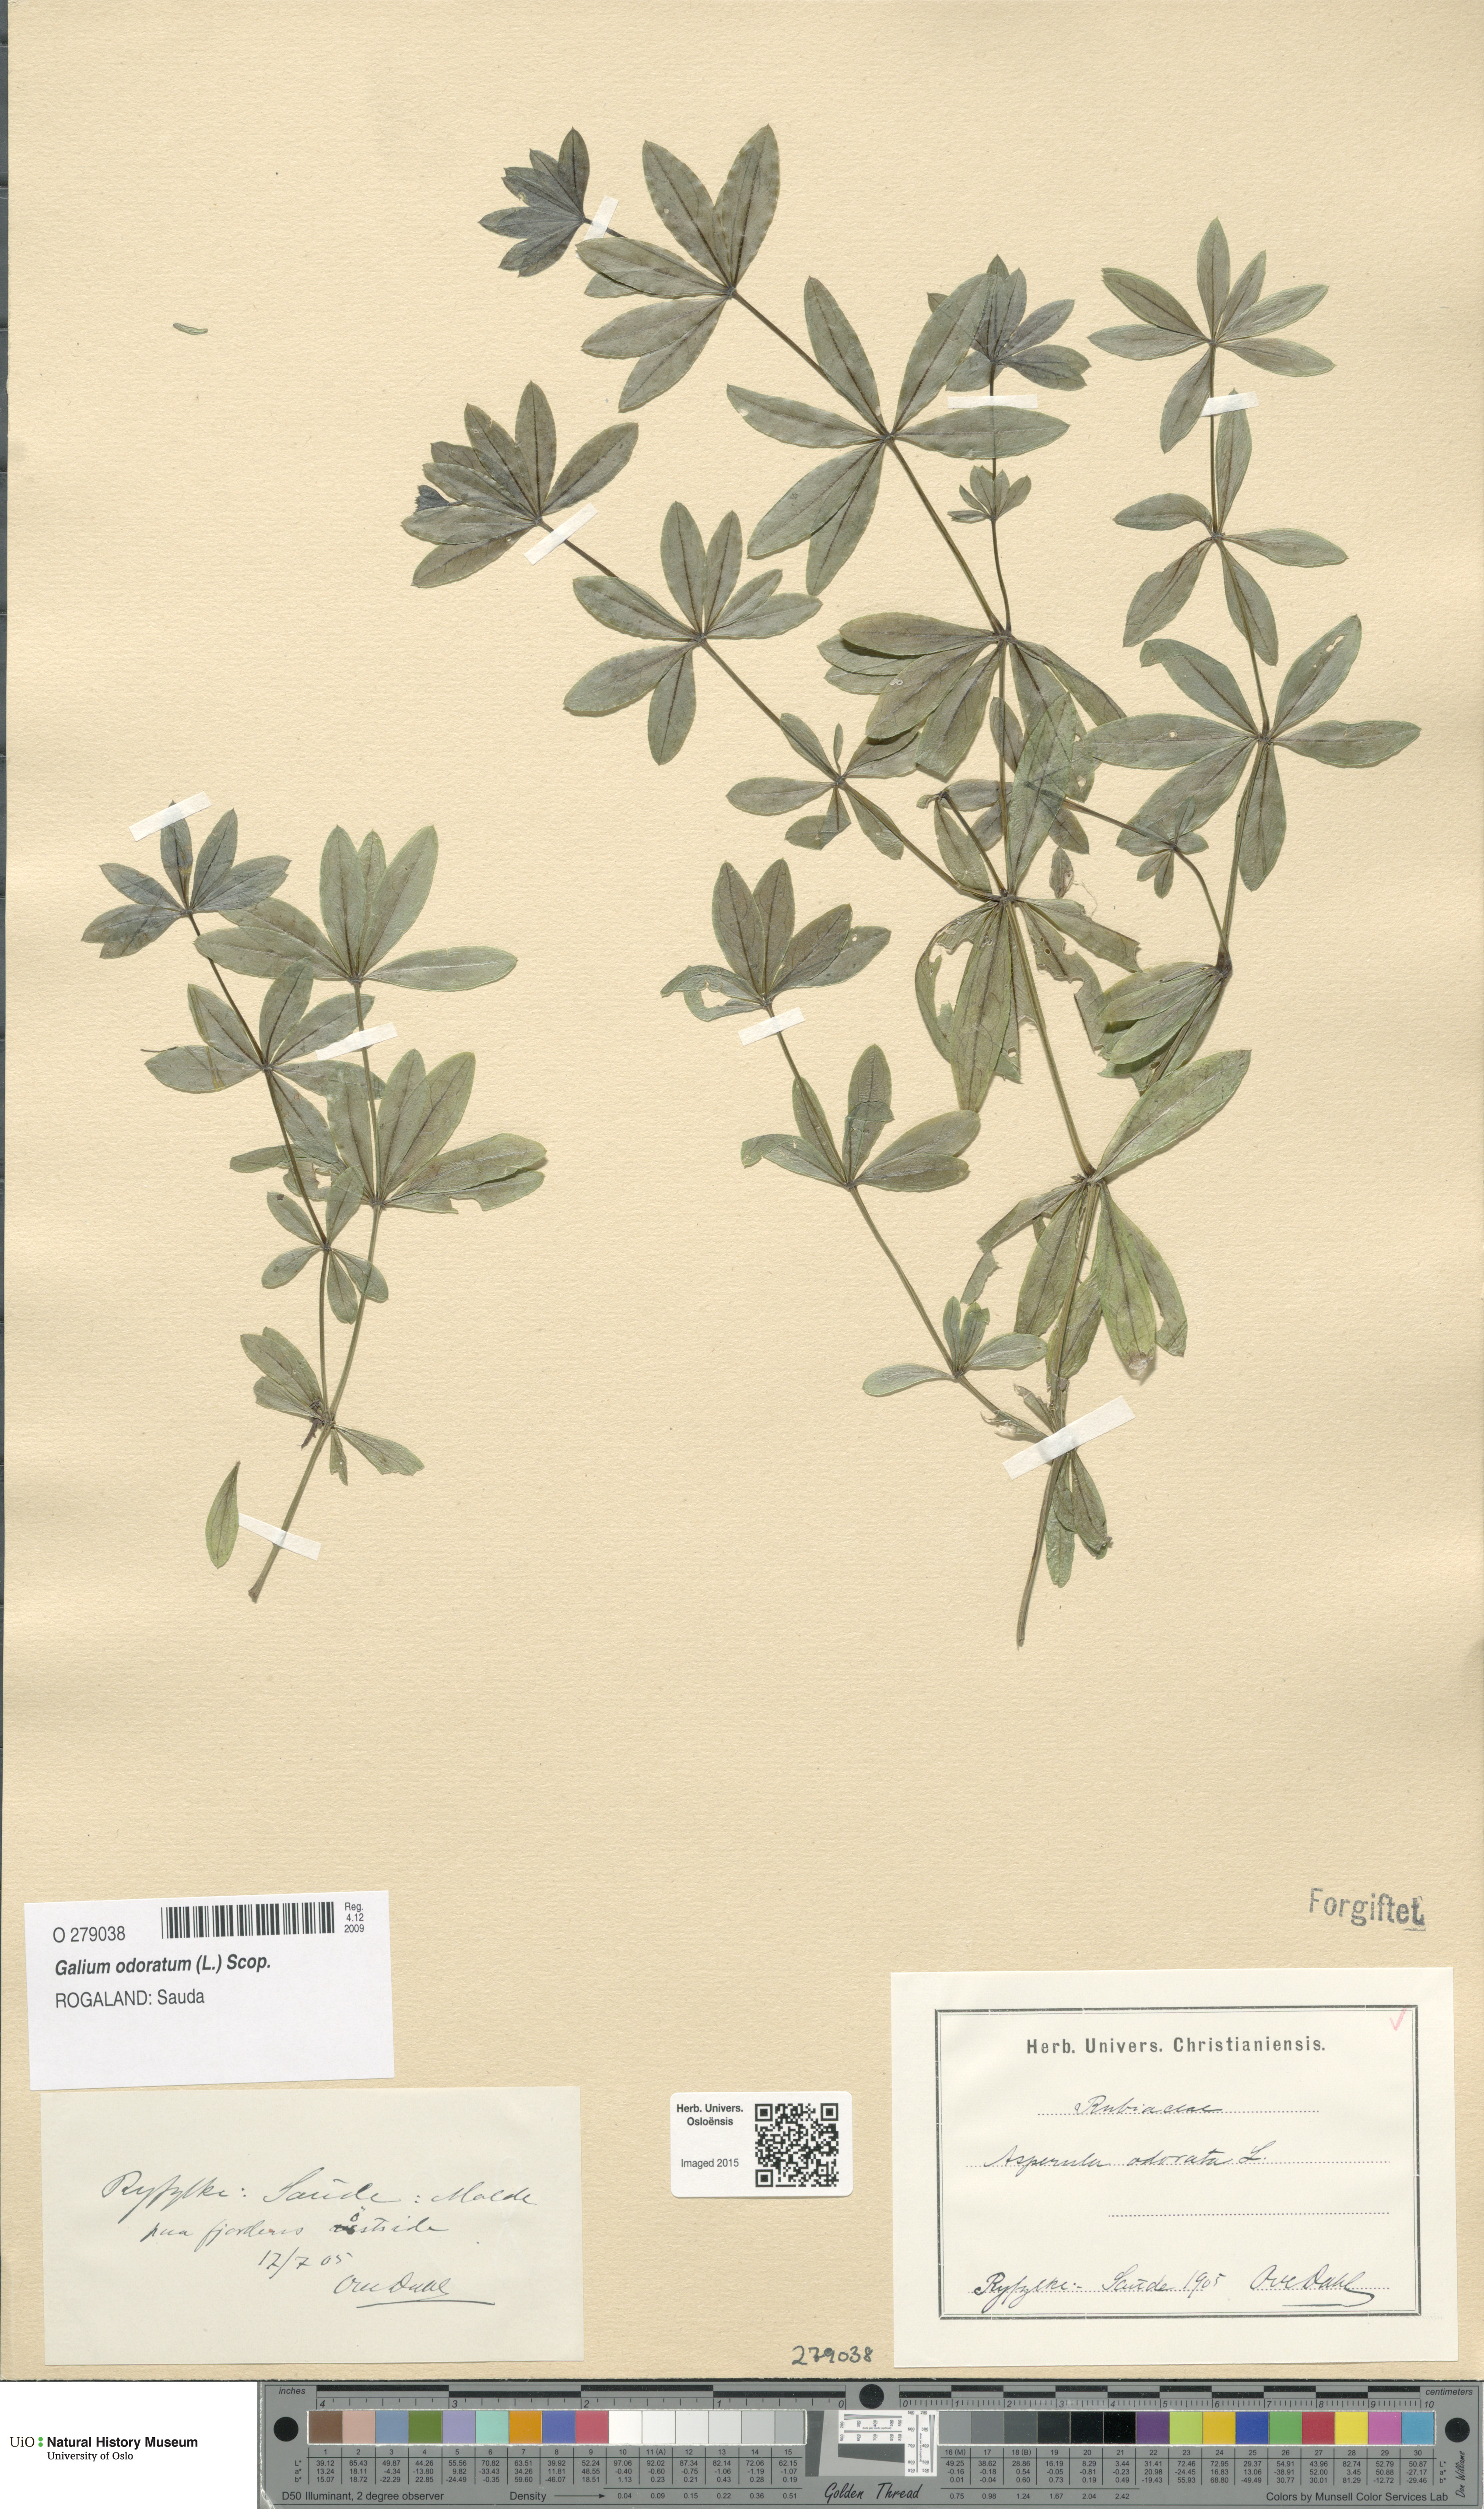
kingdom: Plantae
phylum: Tracheophyta
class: Magnoliopsida
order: Gentianales
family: Rubiaceae
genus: Galium
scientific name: Galium odoratum
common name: Sweet woodruff
